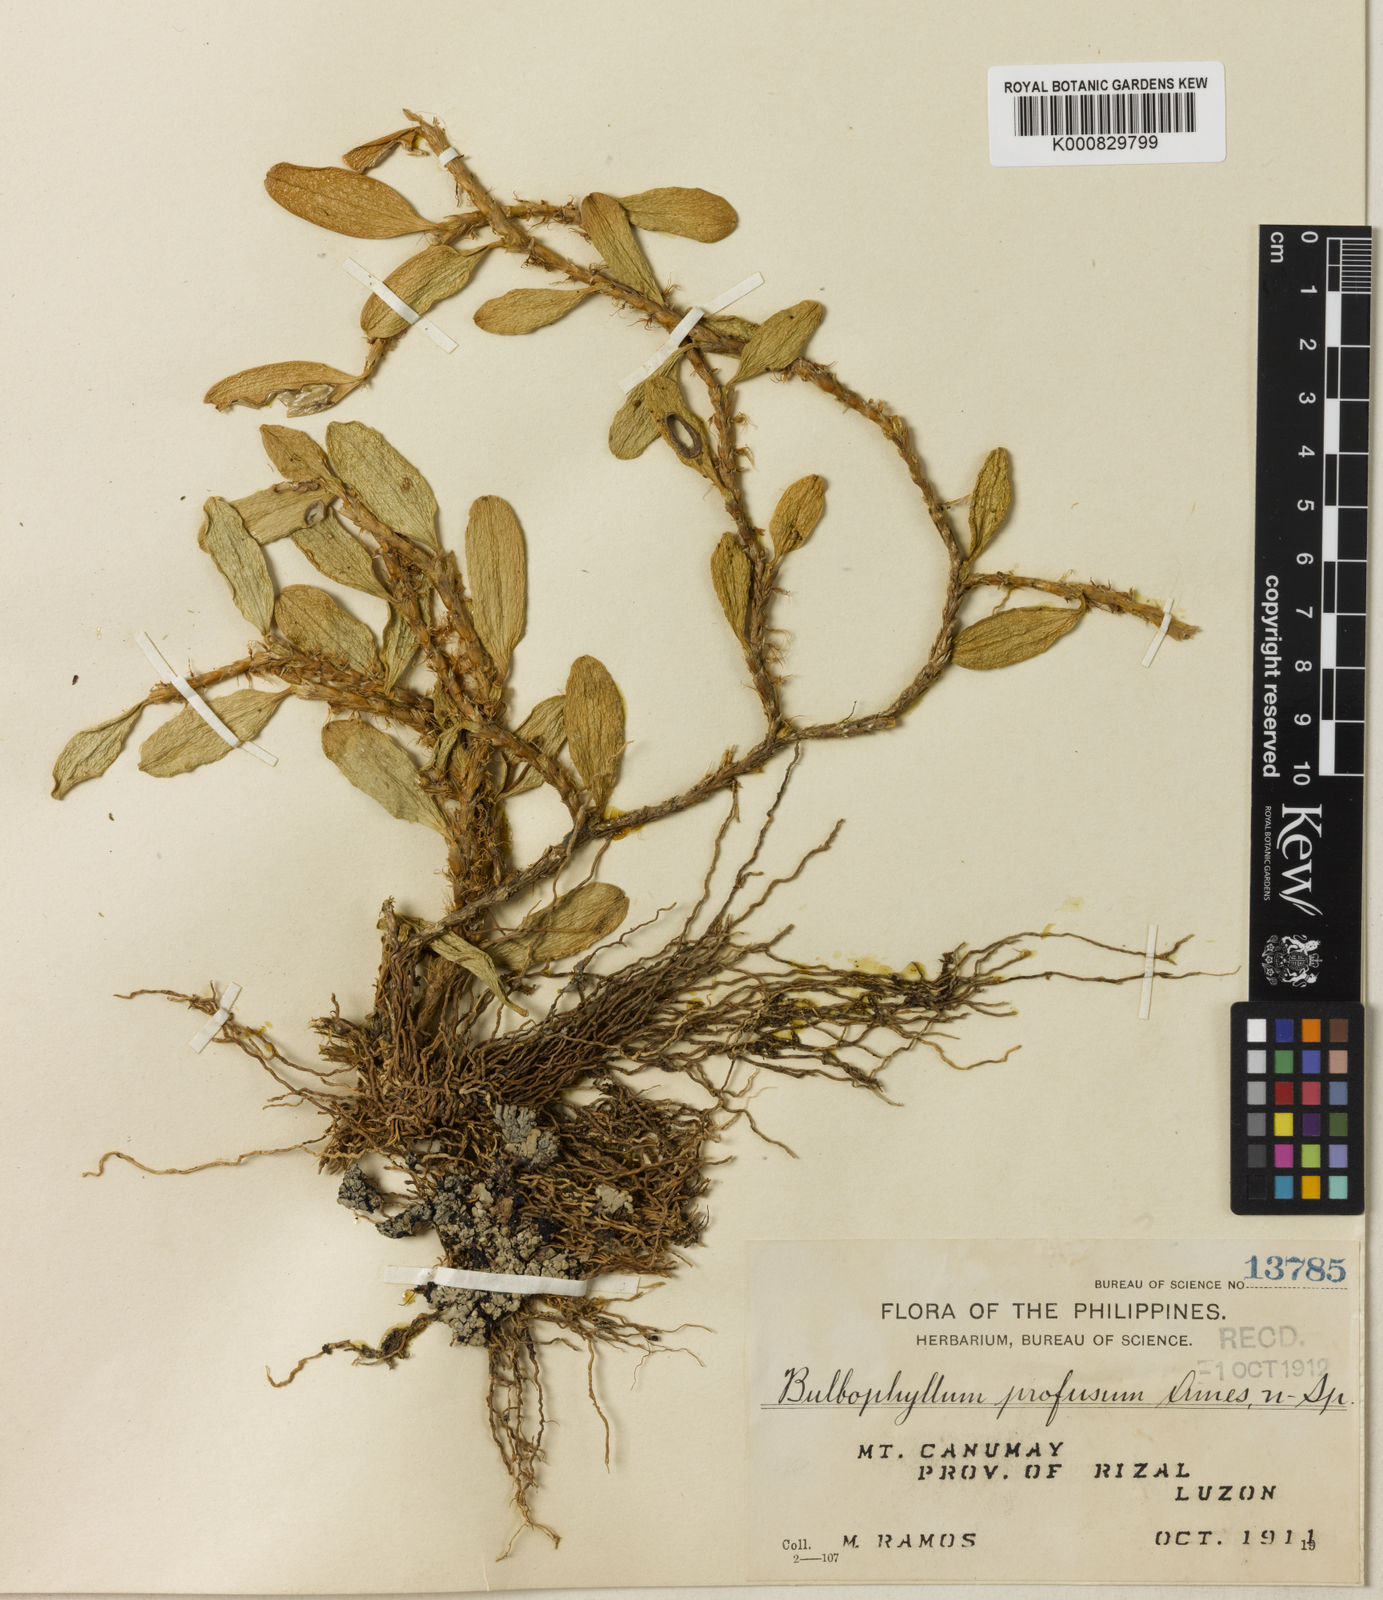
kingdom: Plantae
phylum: Tracheophyta
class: Liliopsida
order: Asparagales
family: Orchidaceae
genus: Bulbophyllum
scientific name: Bulbophyllum clandestinum
